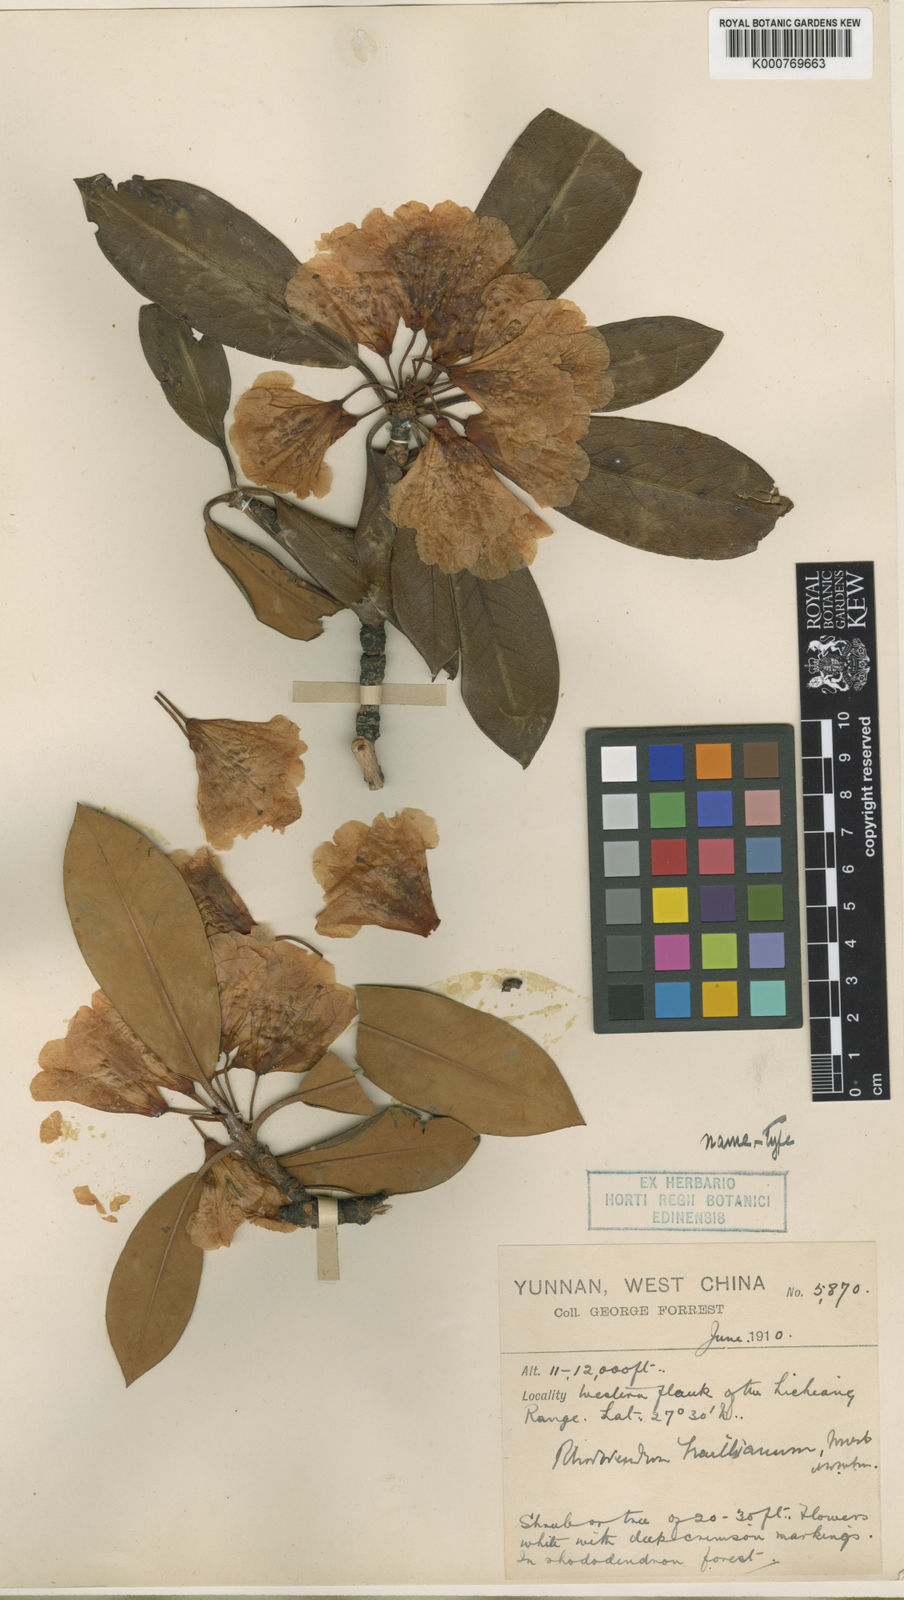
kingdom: Plantae
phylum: Tracheophyta
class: Magnoliopsida
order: Ericales
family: Ericaceae
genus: Rhododendron
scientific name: Rhododendron traillianum
